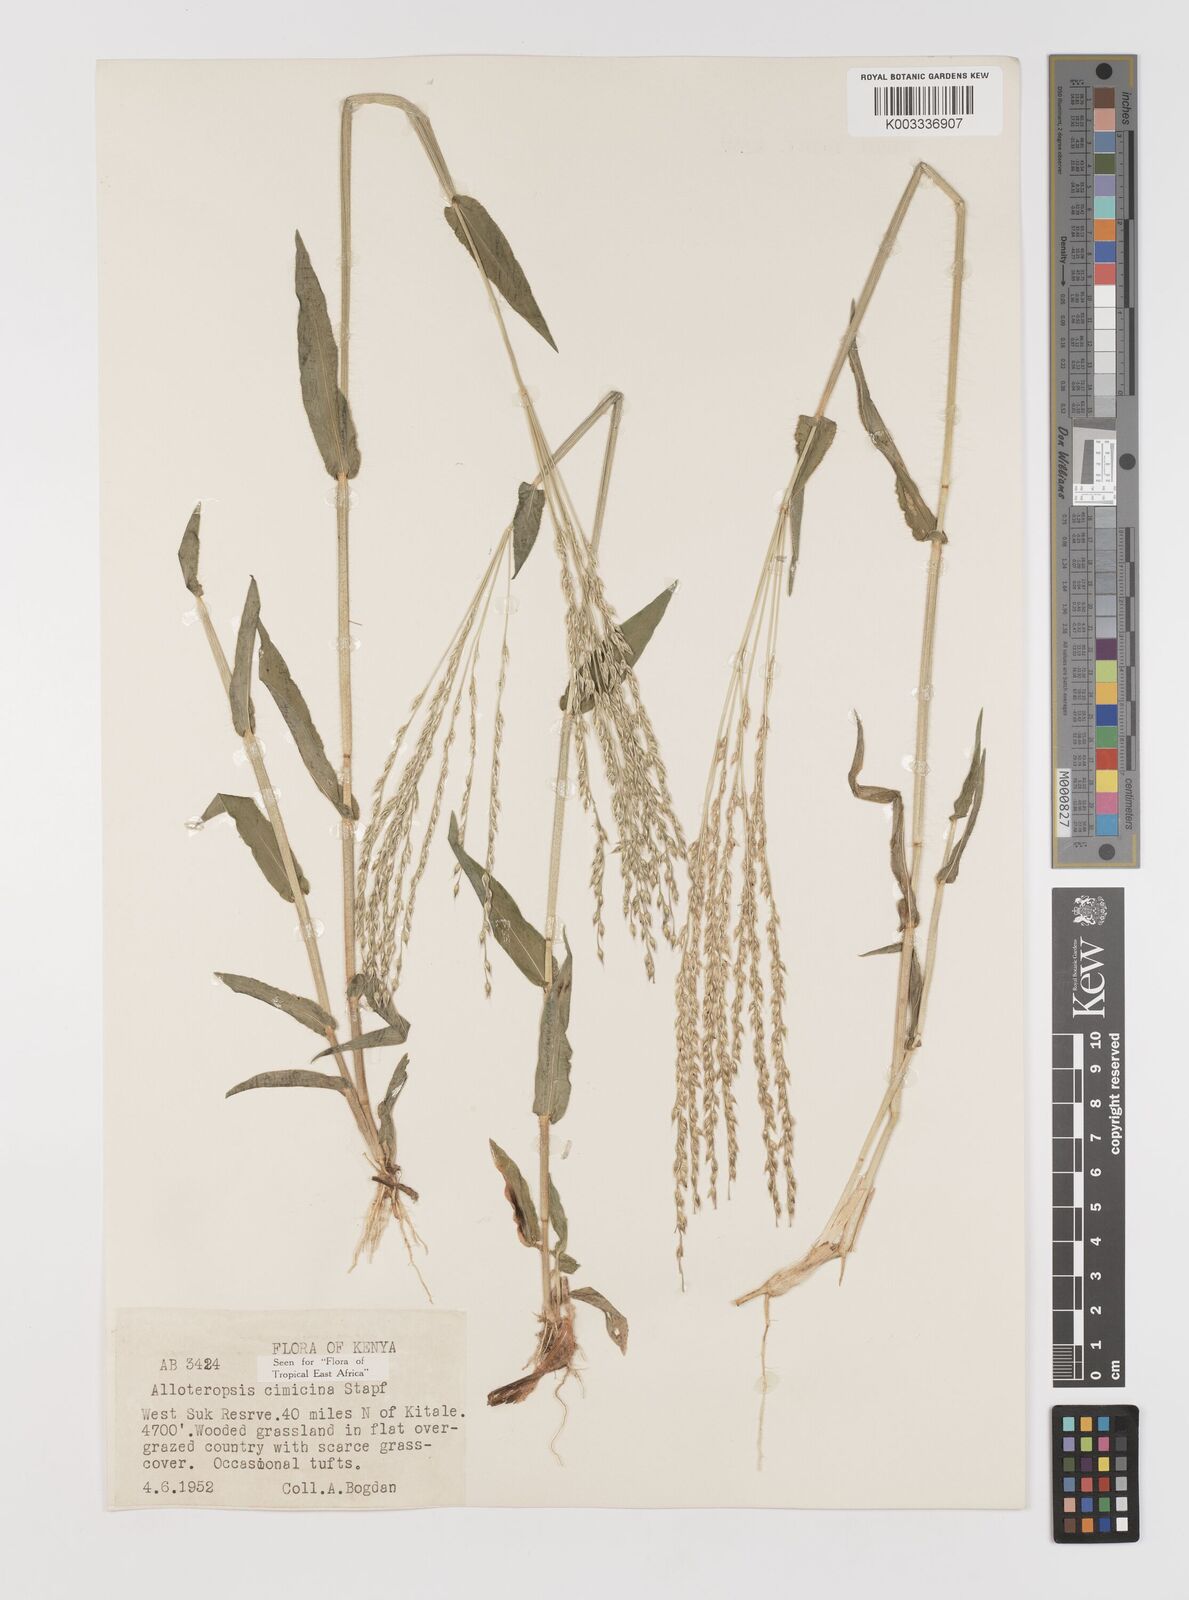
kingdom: Plantae
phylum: Tracheophyta
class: Liliopsida
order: Poales
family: Poaceae
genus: Alloteropsis
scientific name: Alloteropsis cimicina
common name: Summergrass
